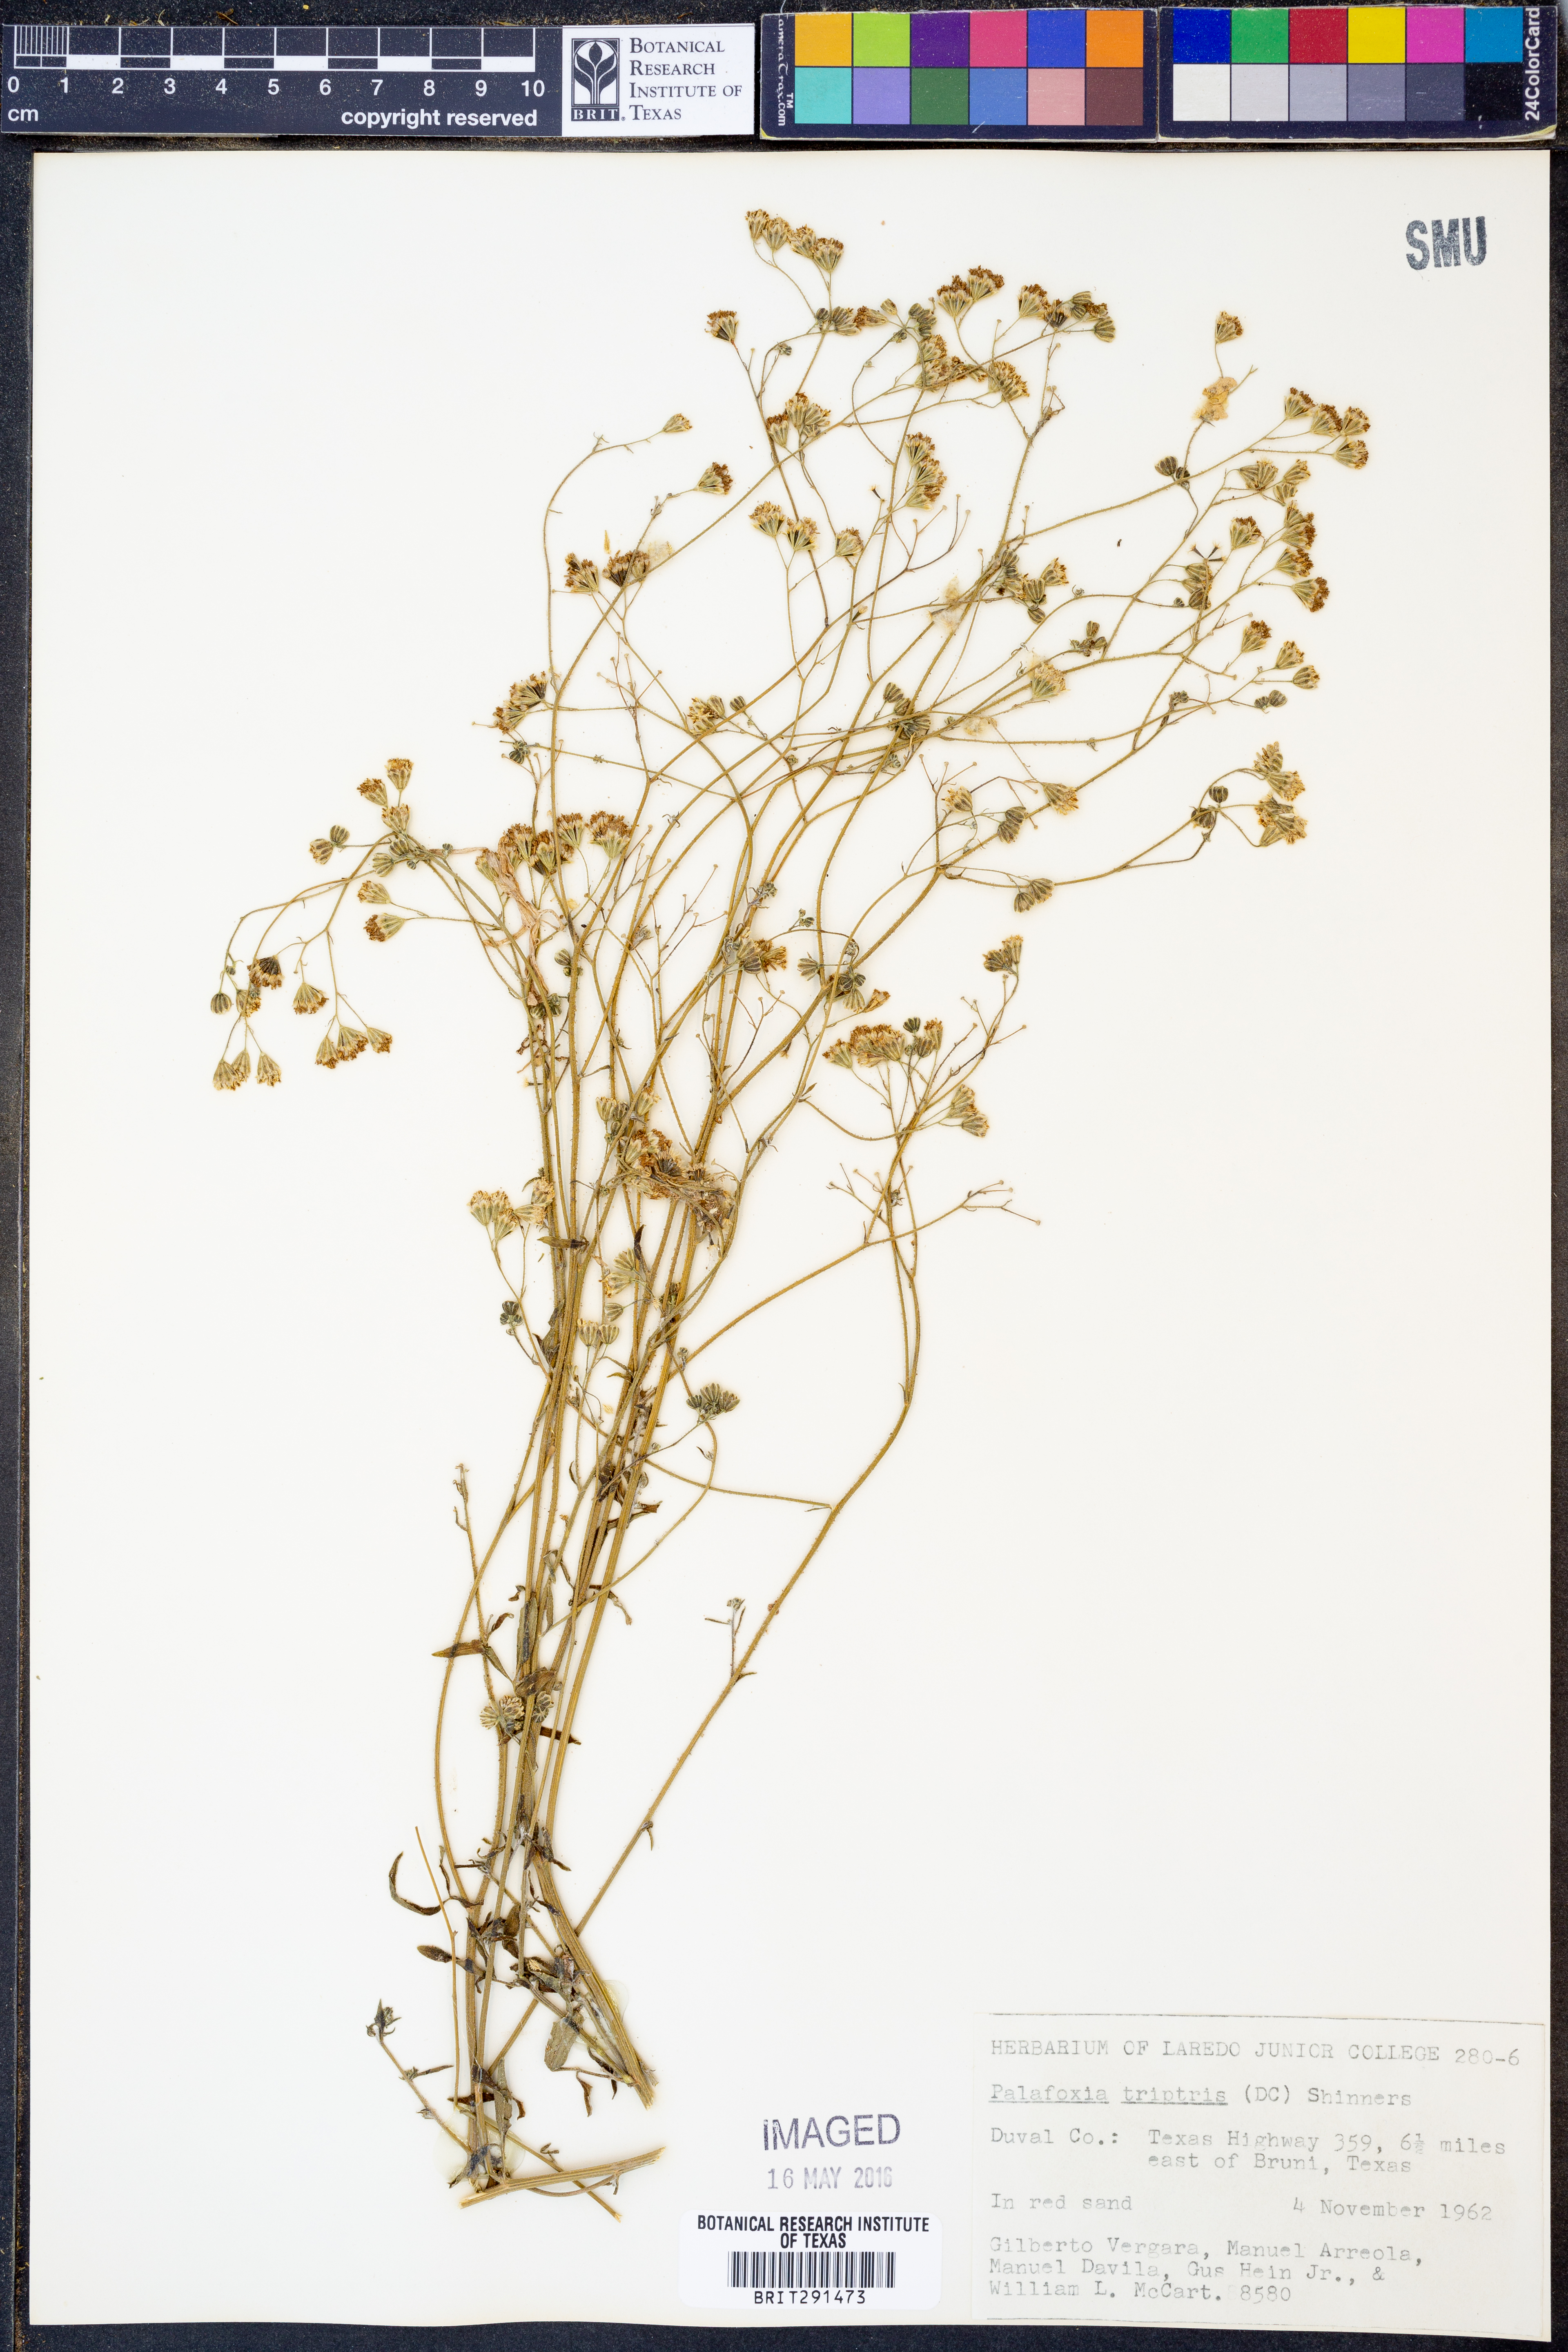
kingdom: Plantae
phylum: Tracheophyta
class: Magnoliopsida
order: Asterales
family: Asteraceae
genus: Florestina
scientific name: Florestina tripteris
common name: Sticky florestina
